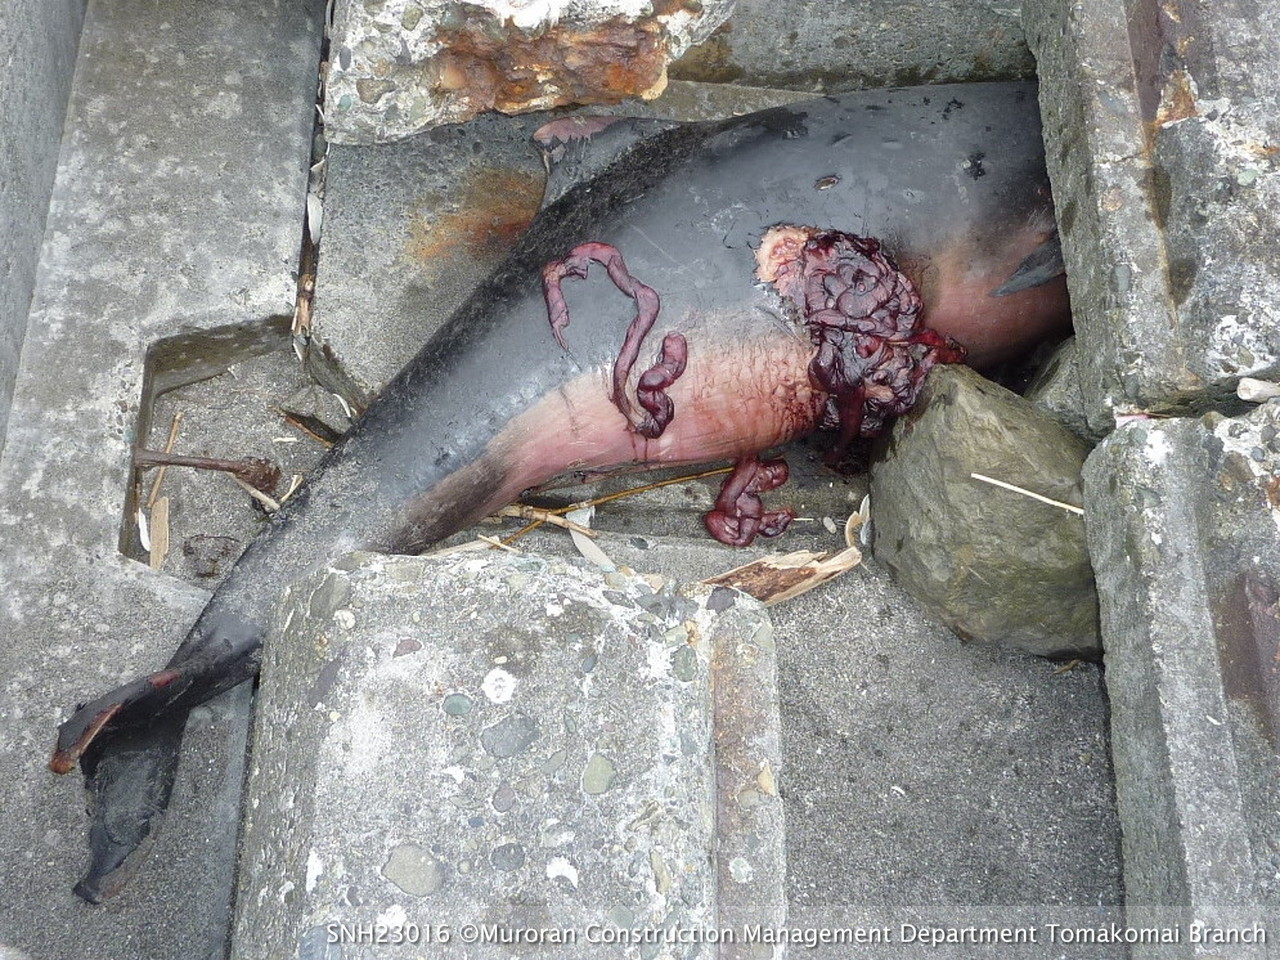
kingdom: Animalia
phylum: Chordata
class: Mammalia
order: Cetacea
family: Phocoenidae
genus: Phocoena
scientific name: Phocoena phocoena
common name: Harbour porpoise
